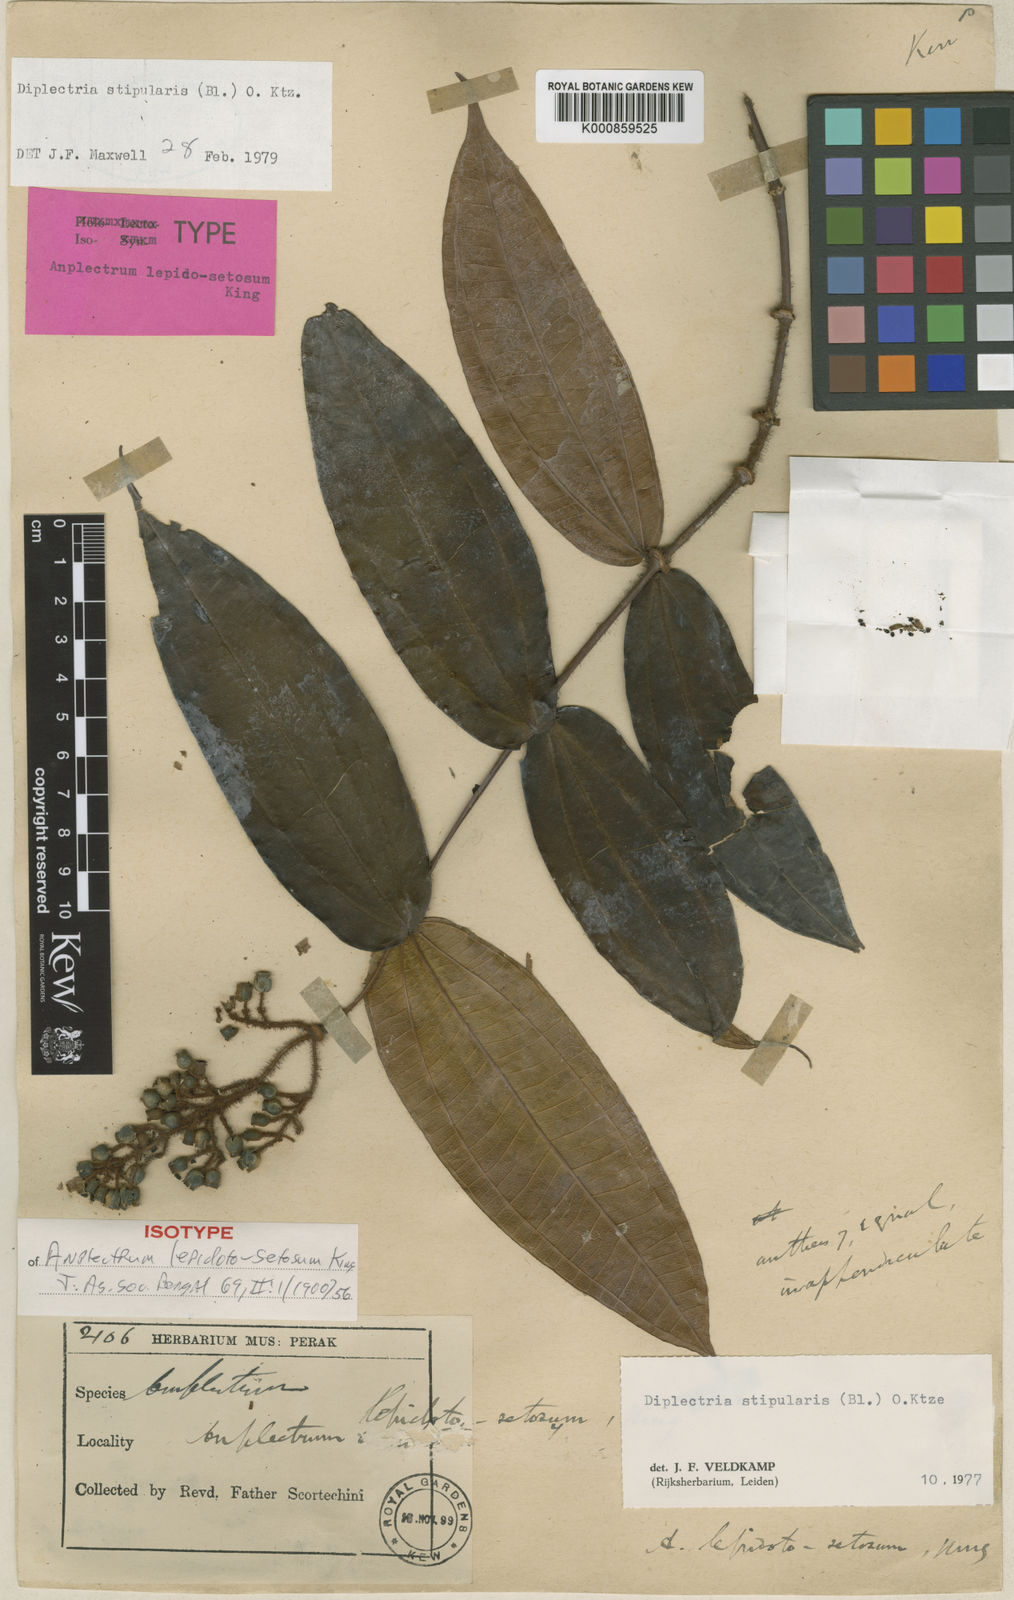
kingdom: Plantae
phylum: Tracheophyta
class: Magnoliopsida
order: Myrtales
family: Melastomataceae
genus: Diplectria
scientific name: Diplectria stipularis
